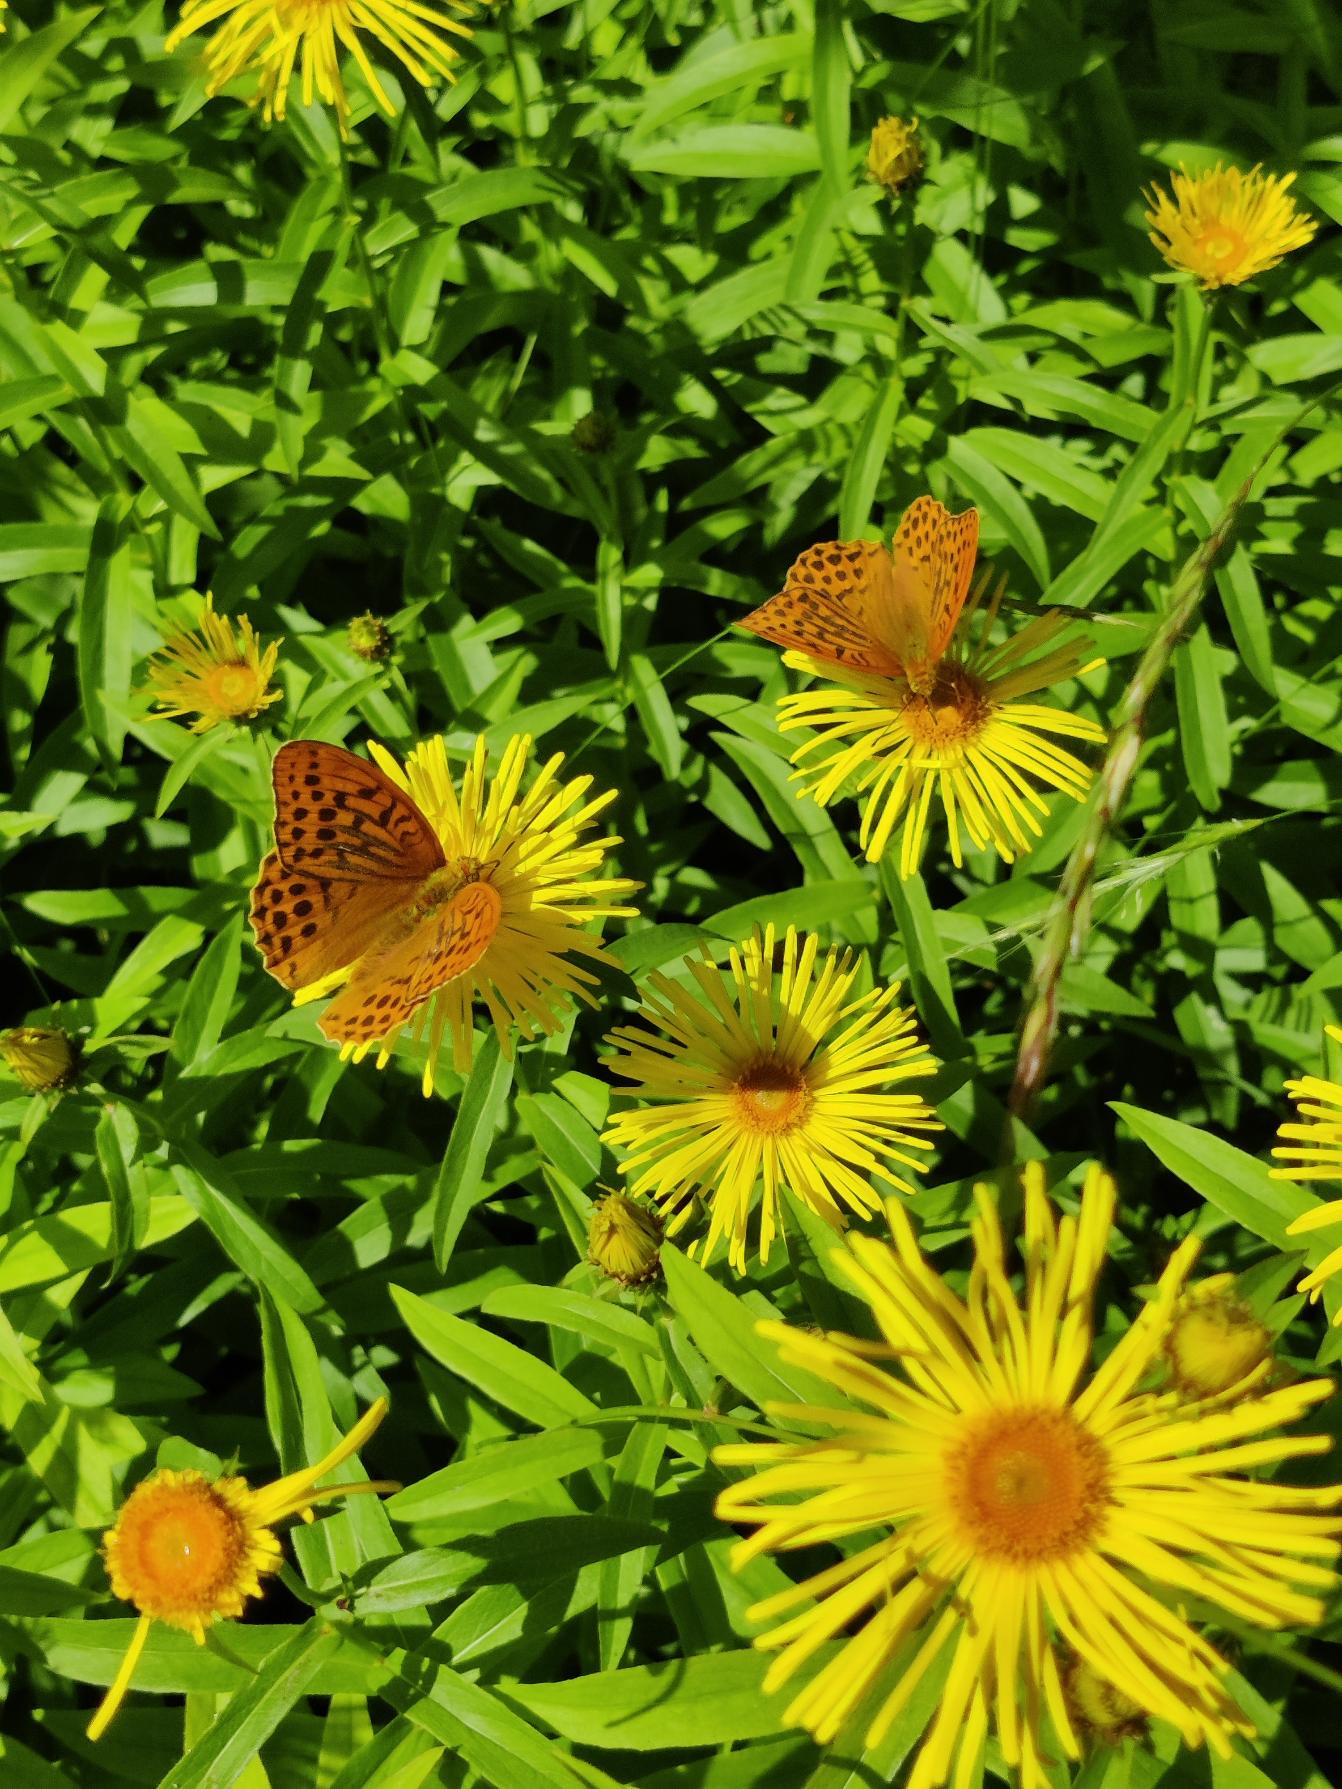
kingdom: Animalia
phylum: Arthropoda
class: Insecta
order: Lepidoptera
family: Nymphalidae
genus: Argynnis
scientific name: Argynnis paphia
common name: Kejserkåbe
